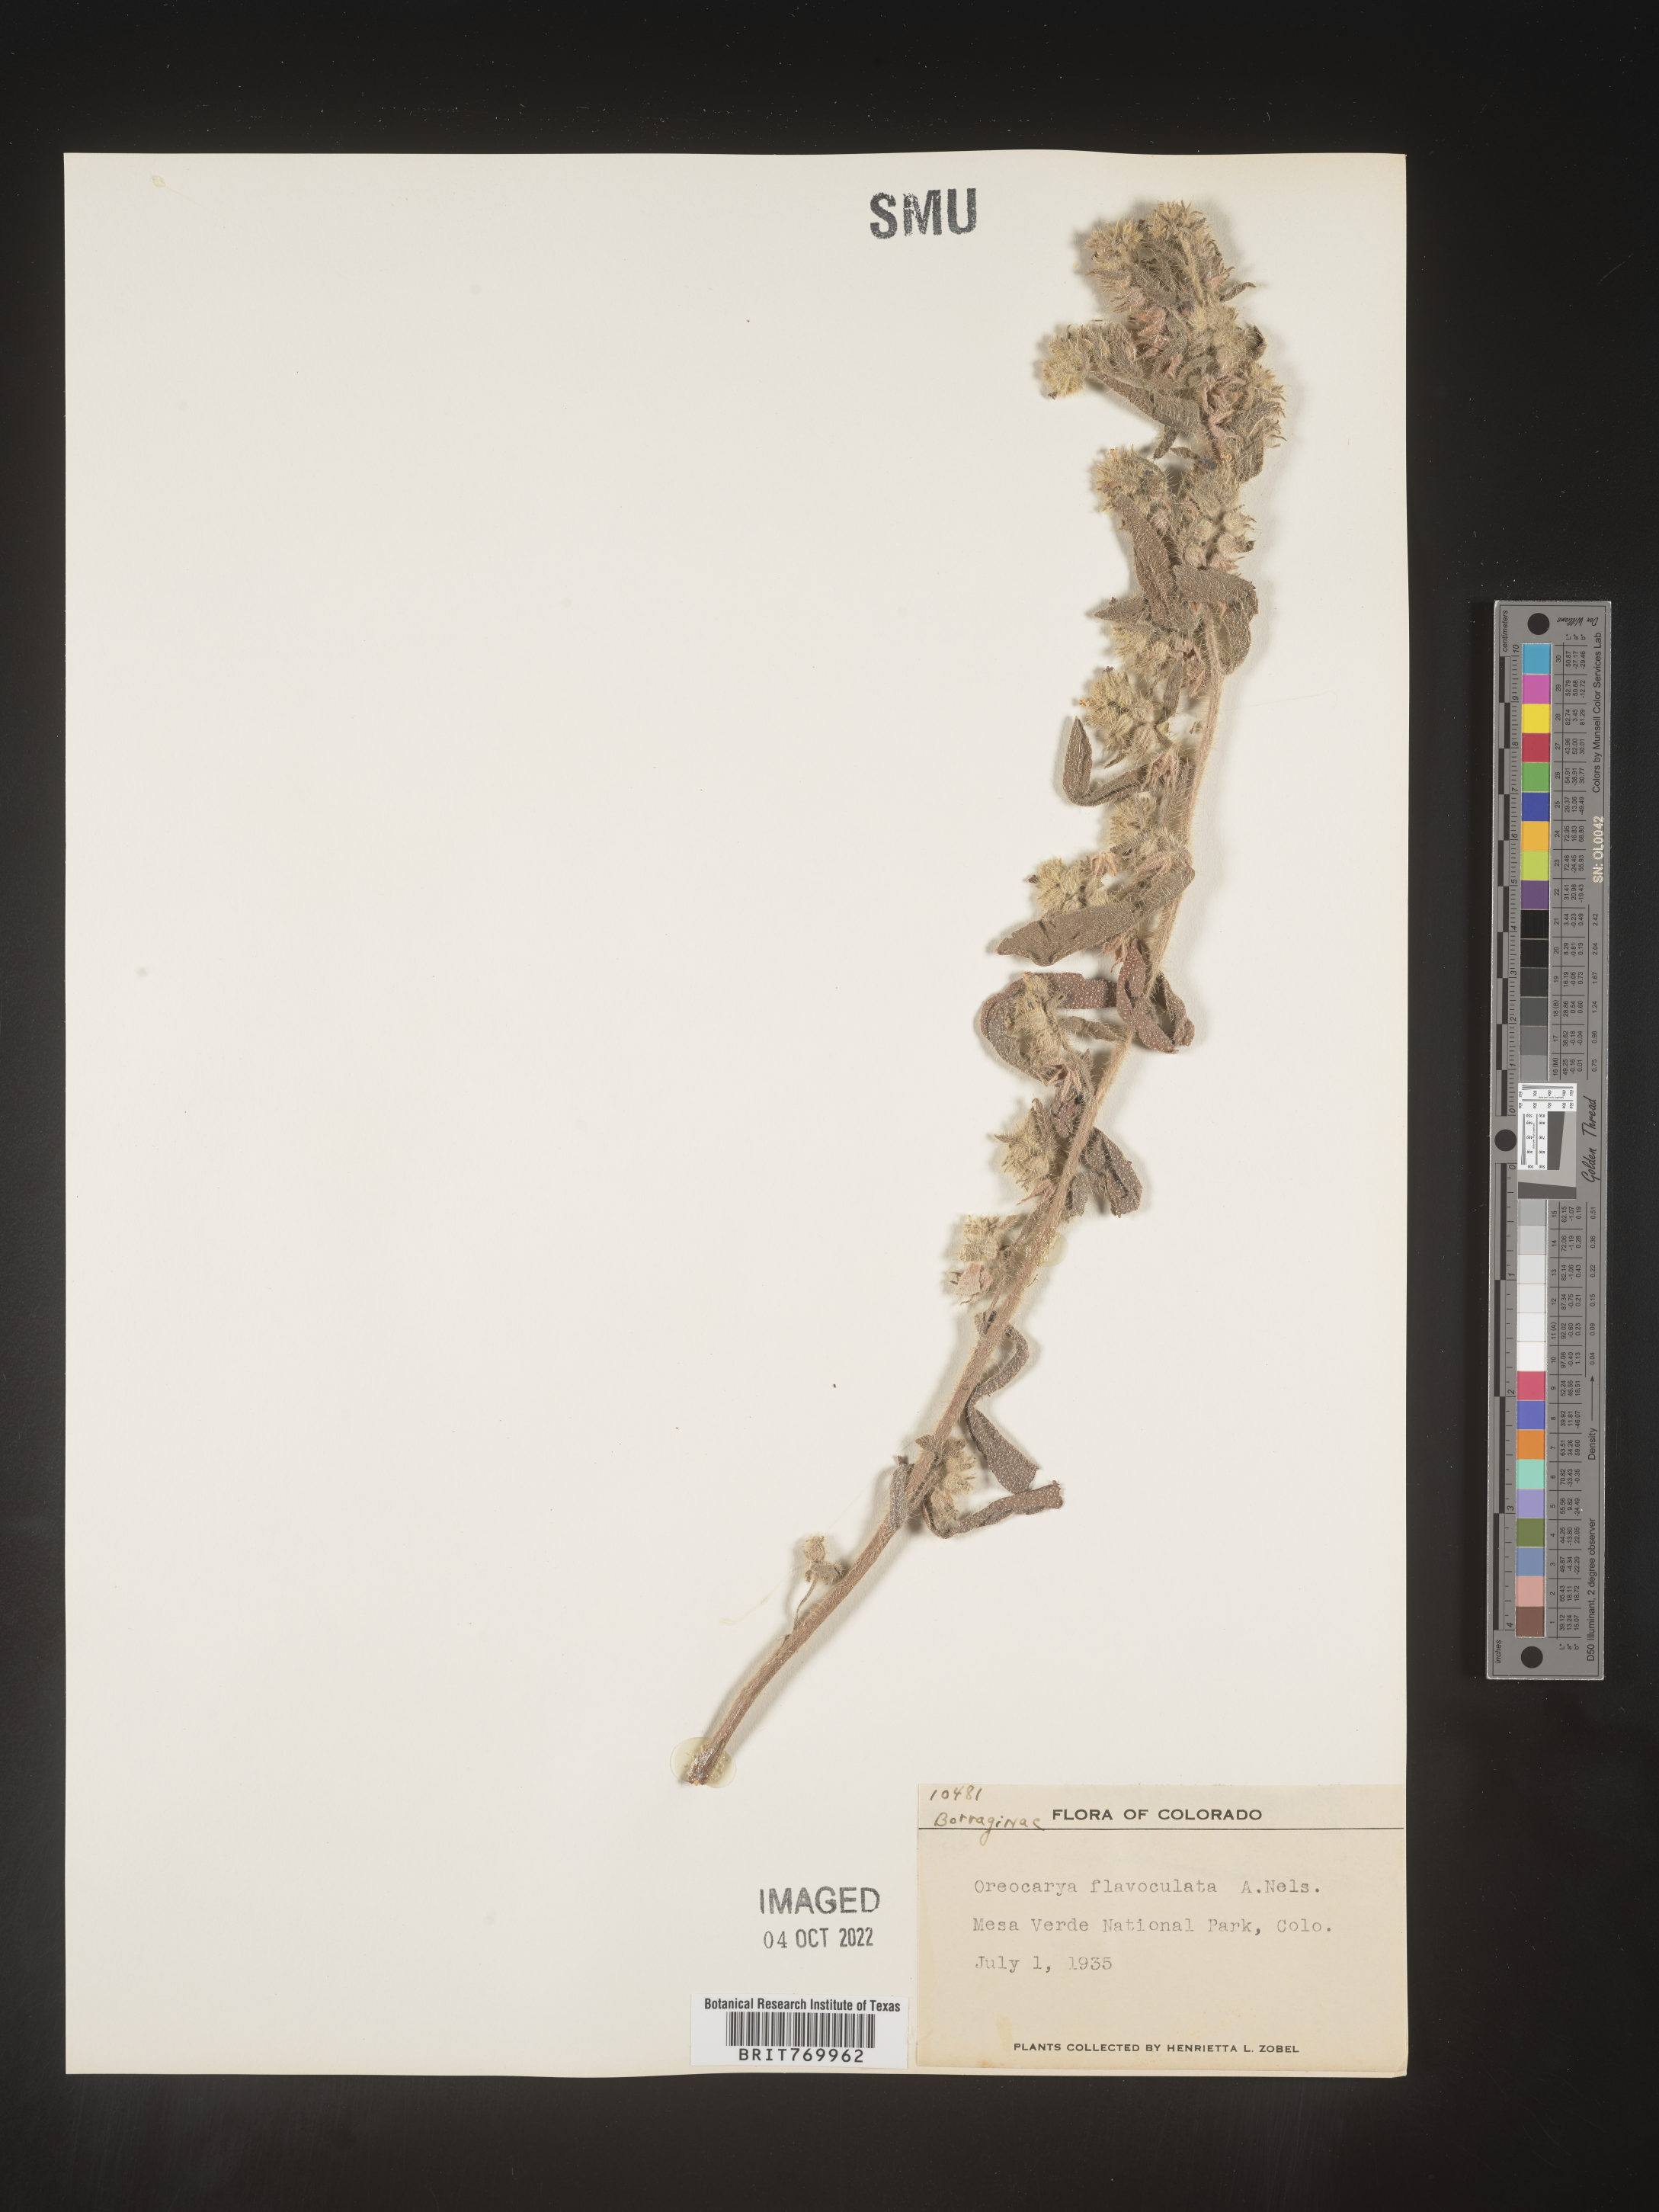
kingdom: Plantae
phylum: Tracheophyta
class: Magnoliopsida
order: Boraginales
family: Boraginaceae
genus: Oreocarya
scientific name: Oreocarya
